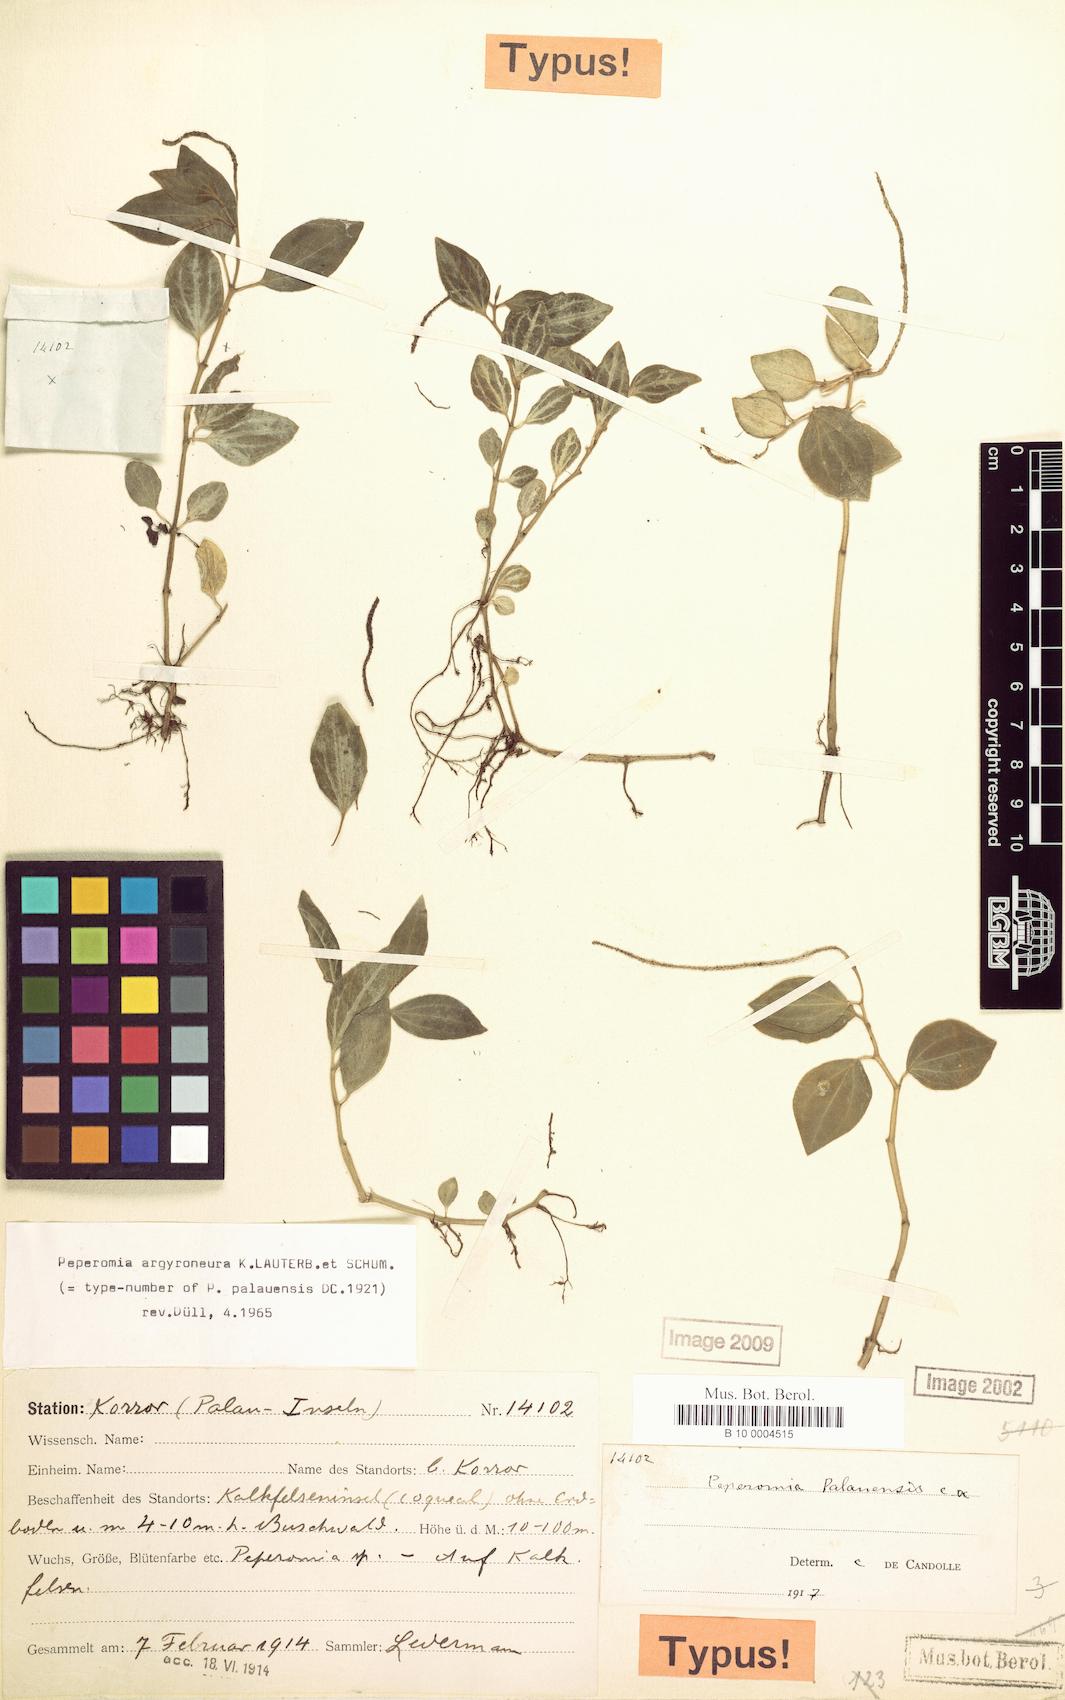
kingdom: Plantae
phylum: Tracheophyta
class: Magnoliopsida
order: Piperales
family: Piperaceae
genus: Peperomia
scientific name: Peperomia argyroneura
